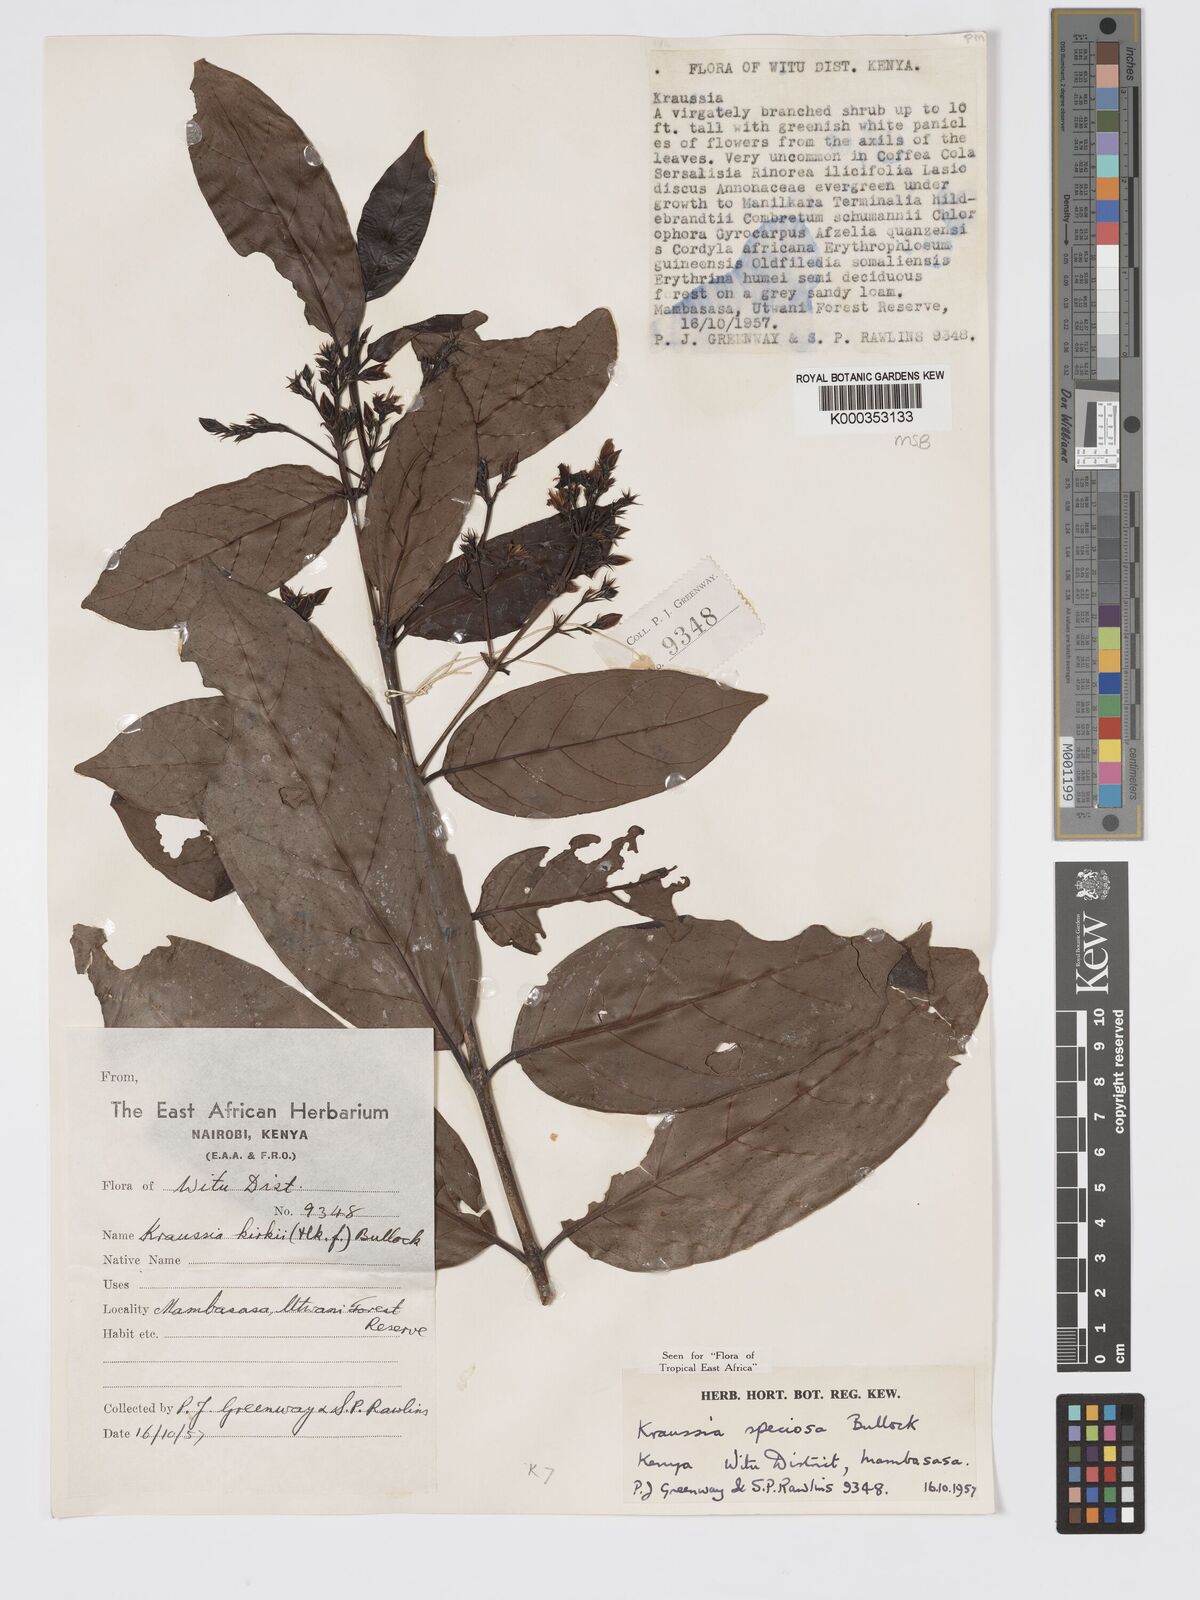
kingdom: Plantae
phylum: Tracheophyta
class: Magnoliopsida
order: Gentianales
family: Rubiaceae
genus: Kraussia
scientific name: Kraussia speciosa
